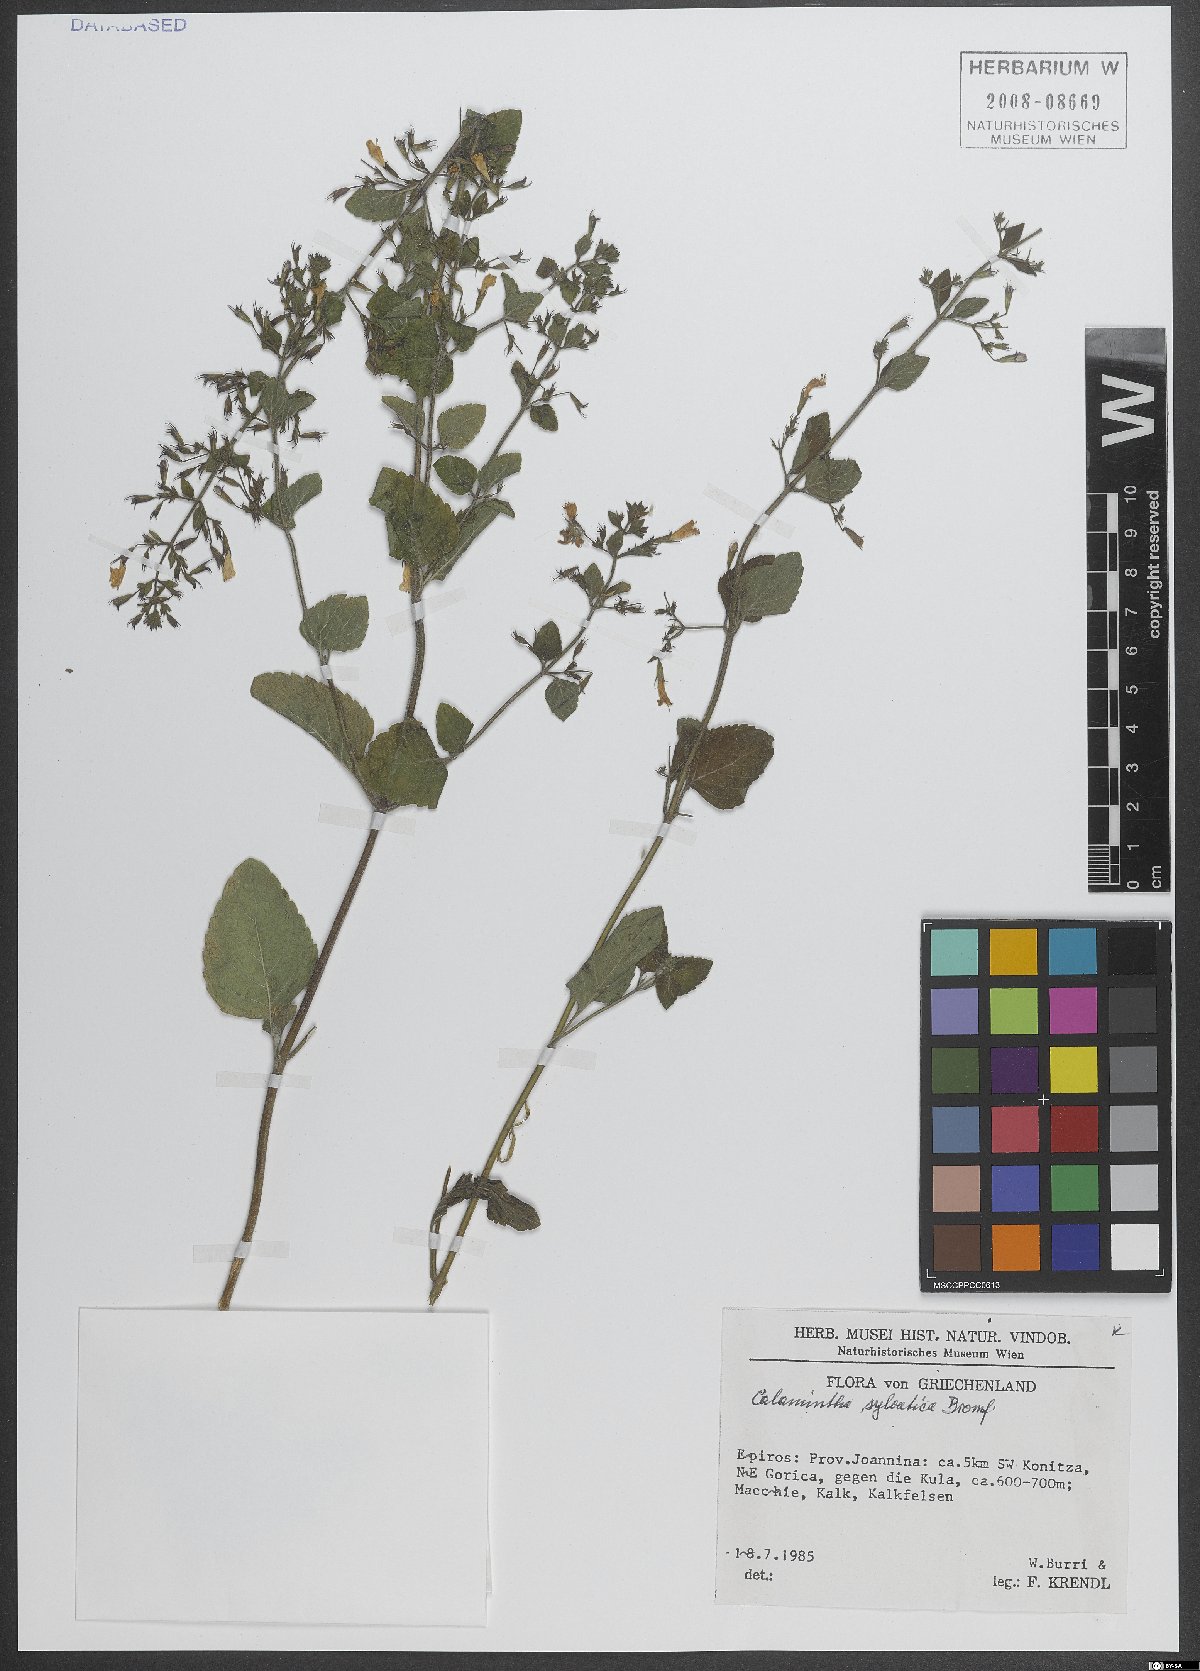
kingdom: Plantae
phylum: Tracheophyta
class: Magnoliopsida
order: Lamiales
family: Lamiaceae
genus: Clinopodium
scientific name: Clinopodium menthifolium
